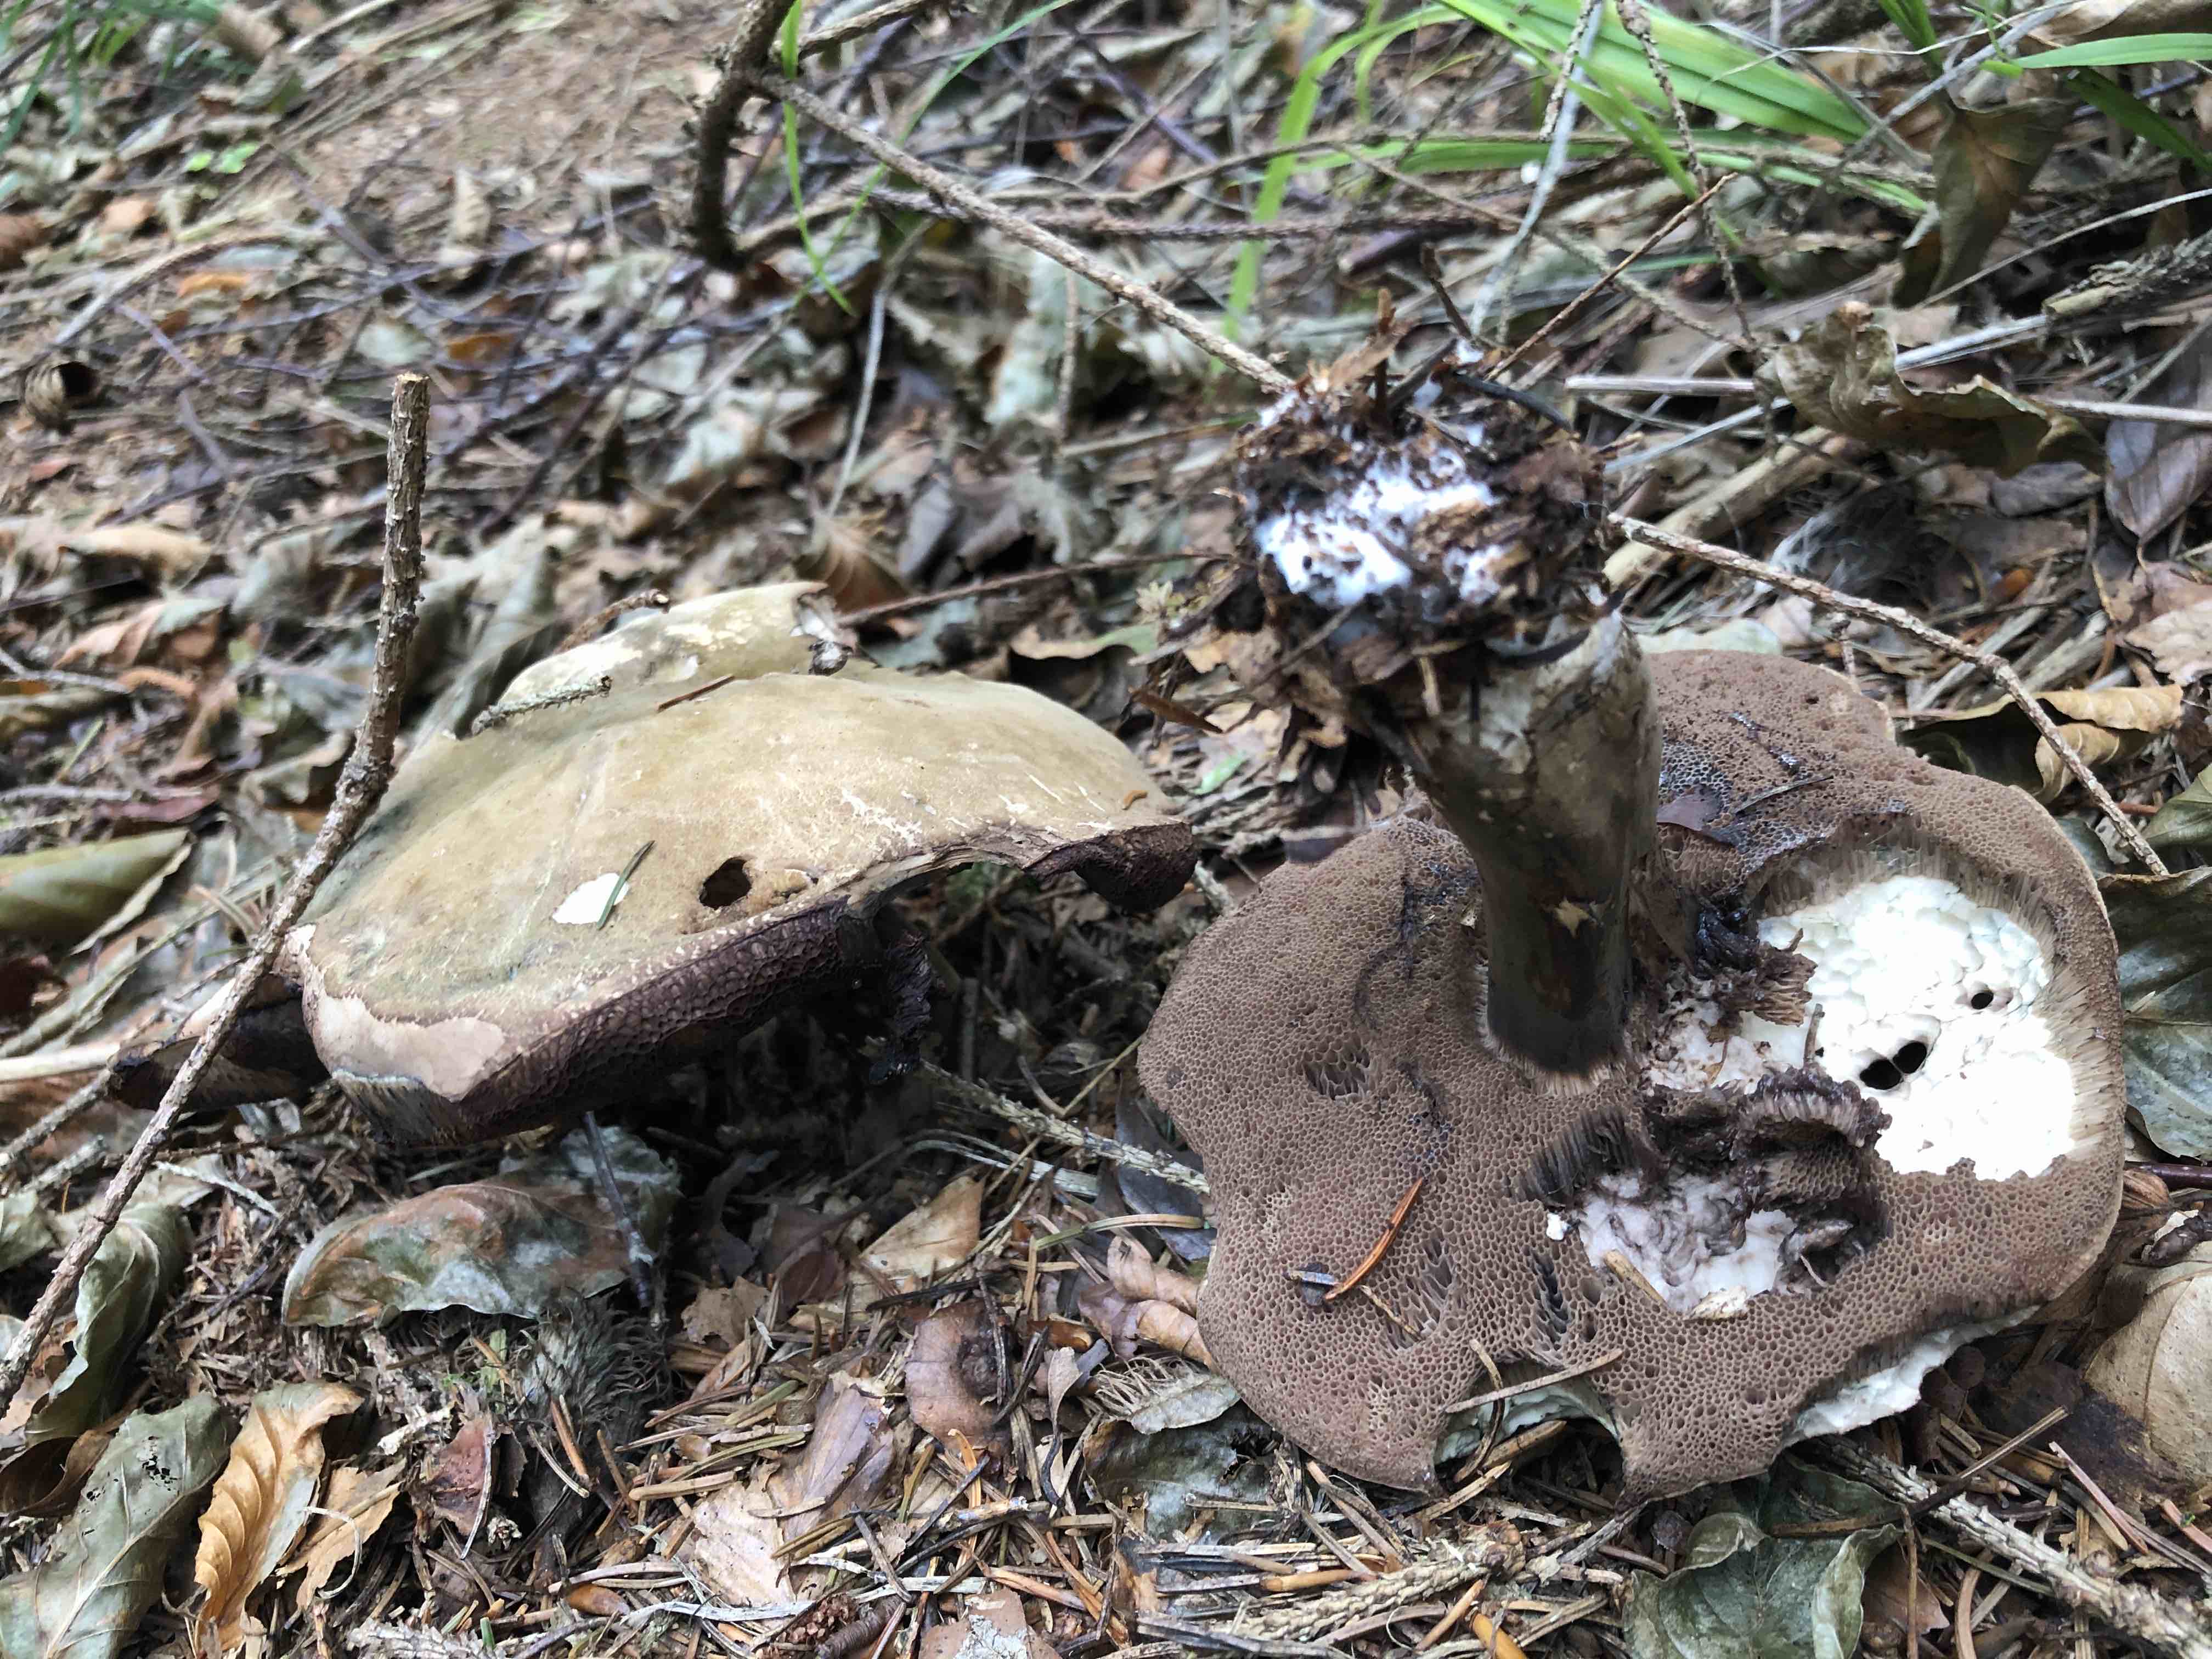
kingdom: Fungi
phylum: Basidiomycota
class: Agaricomycetes
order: Boletales
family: Boletaceae
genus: Porphyrellus
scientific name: Porphyrellus porphyrosporus
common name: sodrørhat
